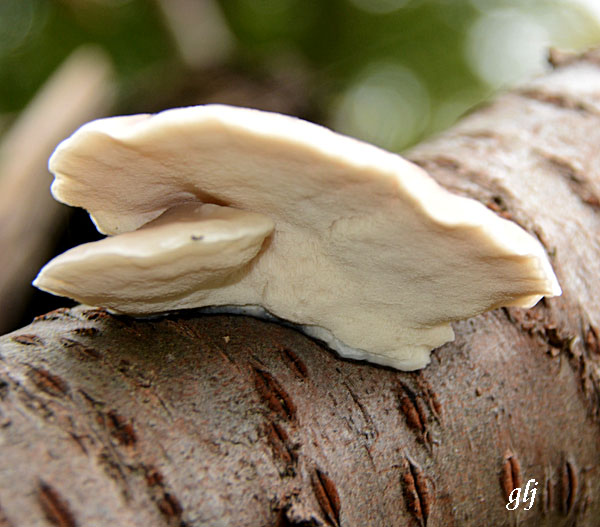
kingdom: Fungi
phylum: Basidiomycota
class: Agaricomycetes
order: Polyporales
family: Incrustoporiaceae
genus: Tyromyces
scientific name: Tyromyces chioneus
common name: stor blødporesvamp
